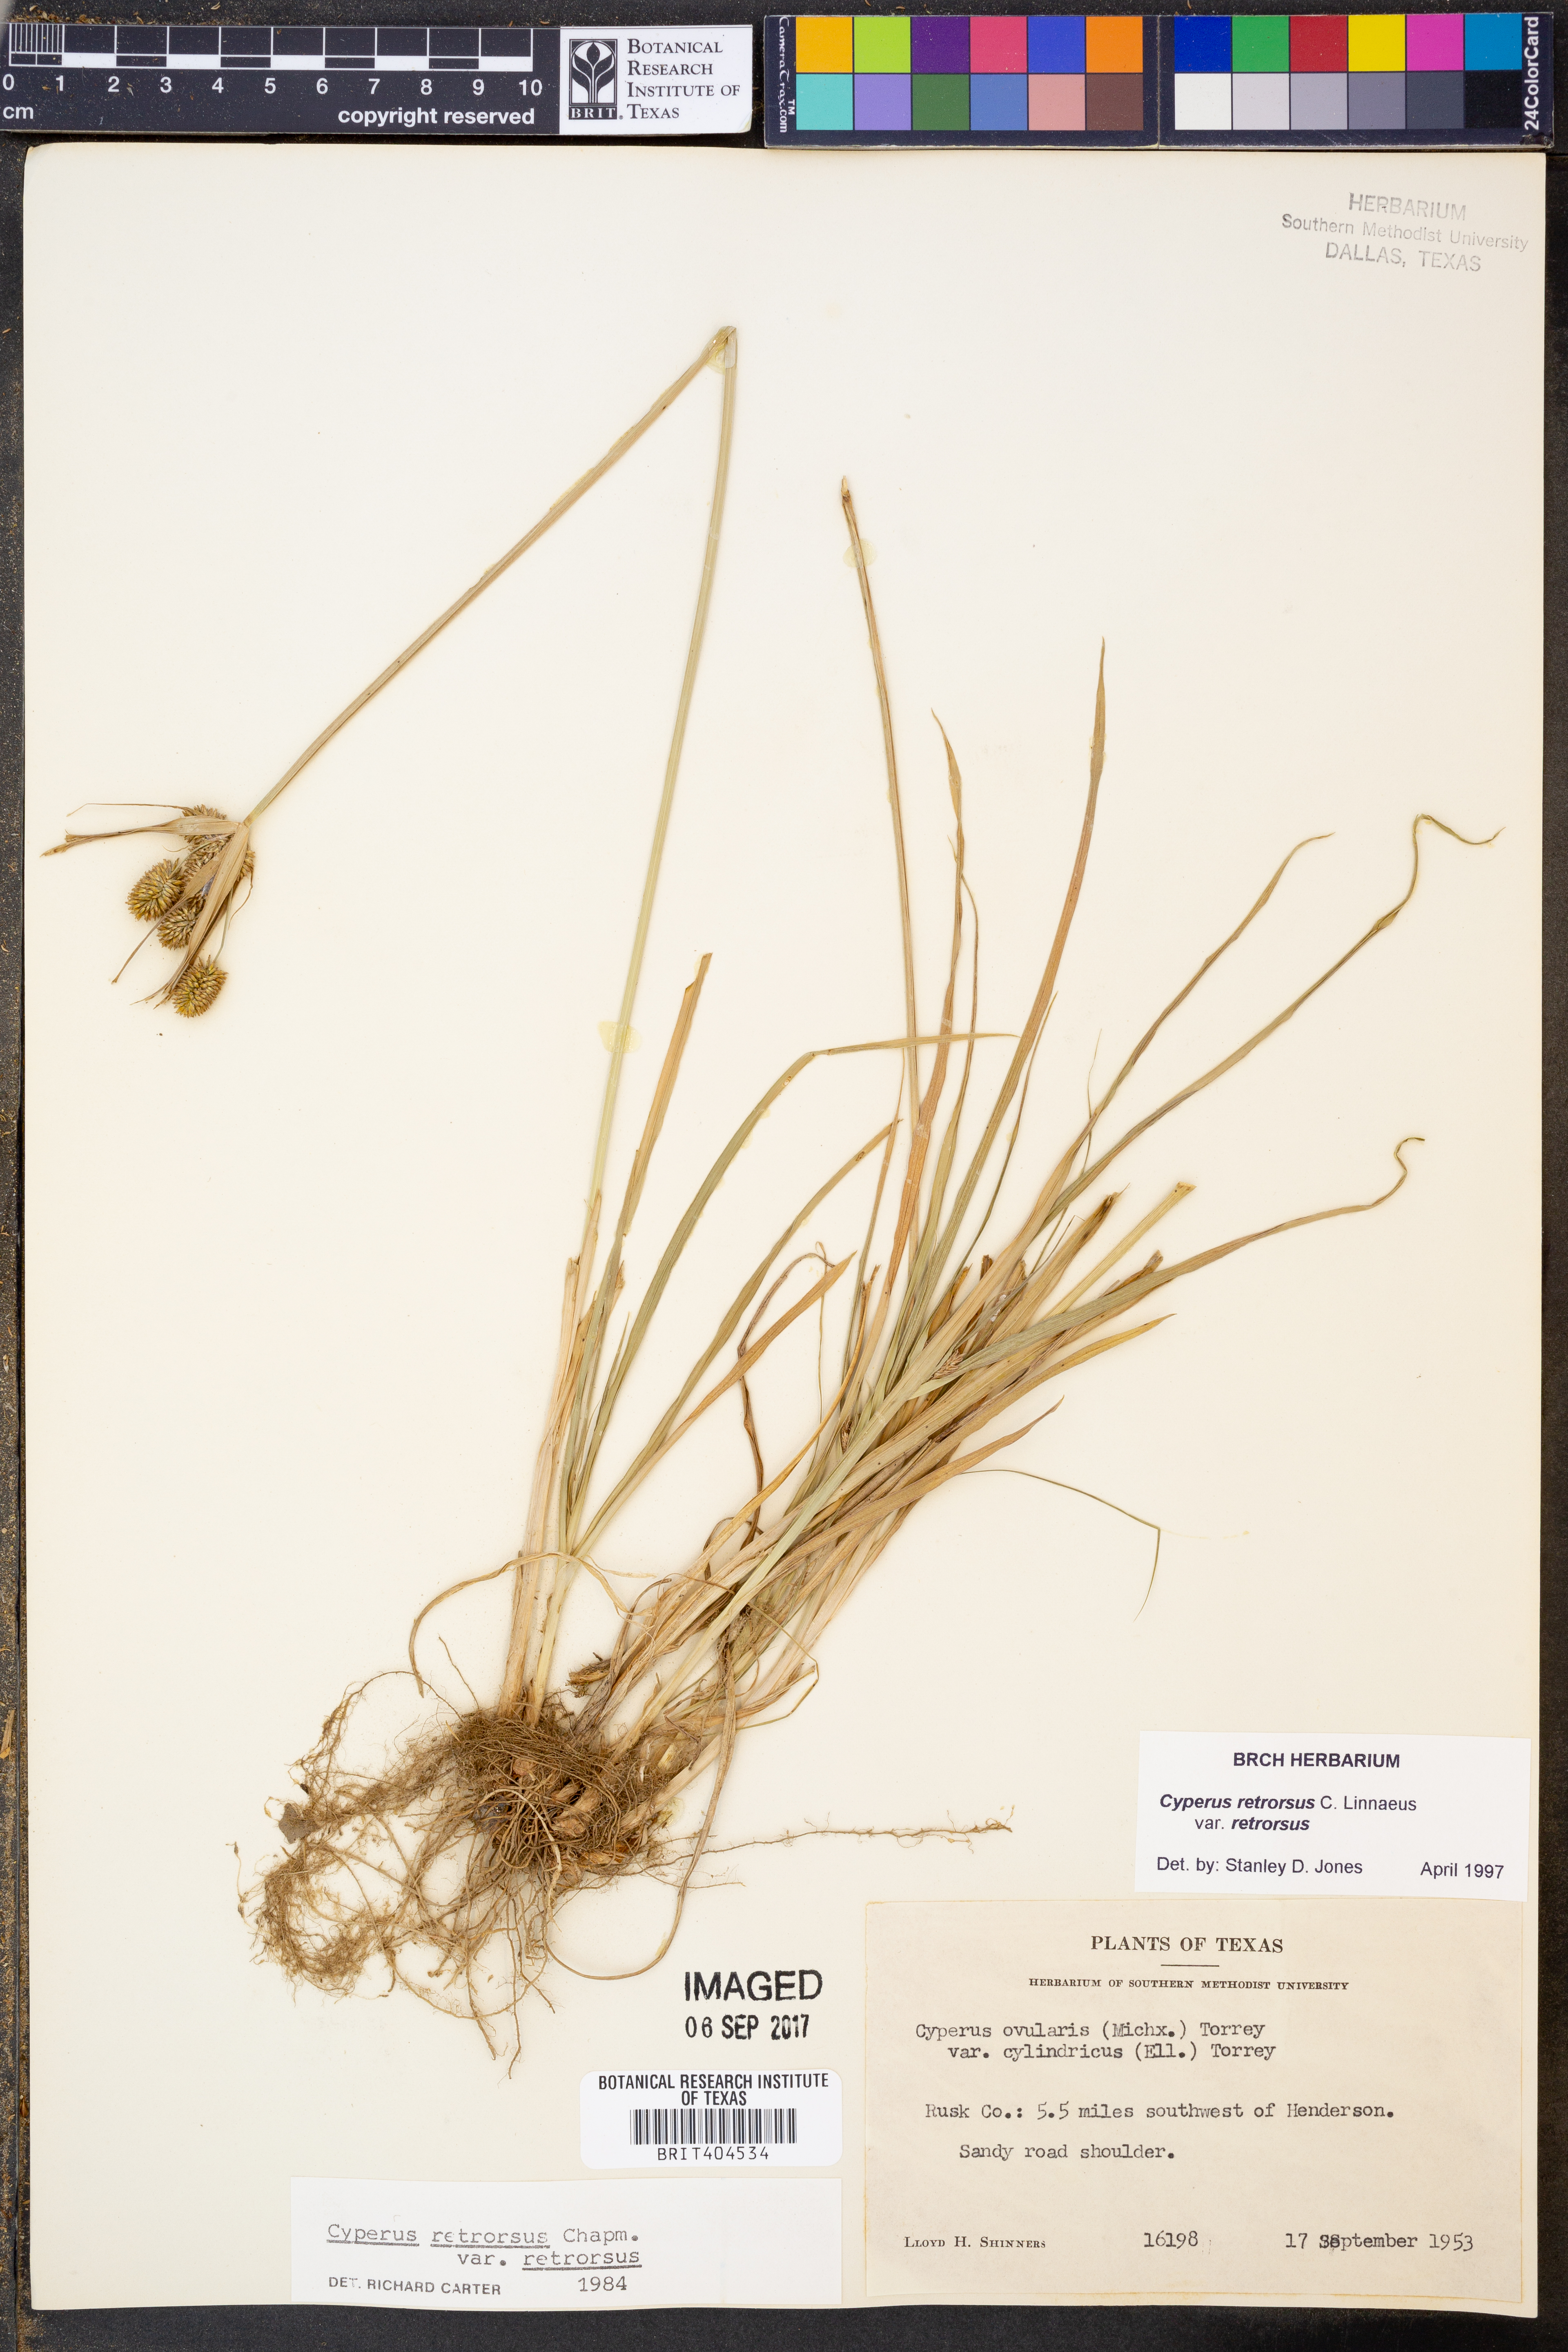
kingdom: Plantae
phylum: Tracheophyta
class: Liliopsida
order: Poales
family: Cyperaceae
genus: Cyperus
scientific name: Cyperus retrorsus
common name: Pinebarren flat sedge
